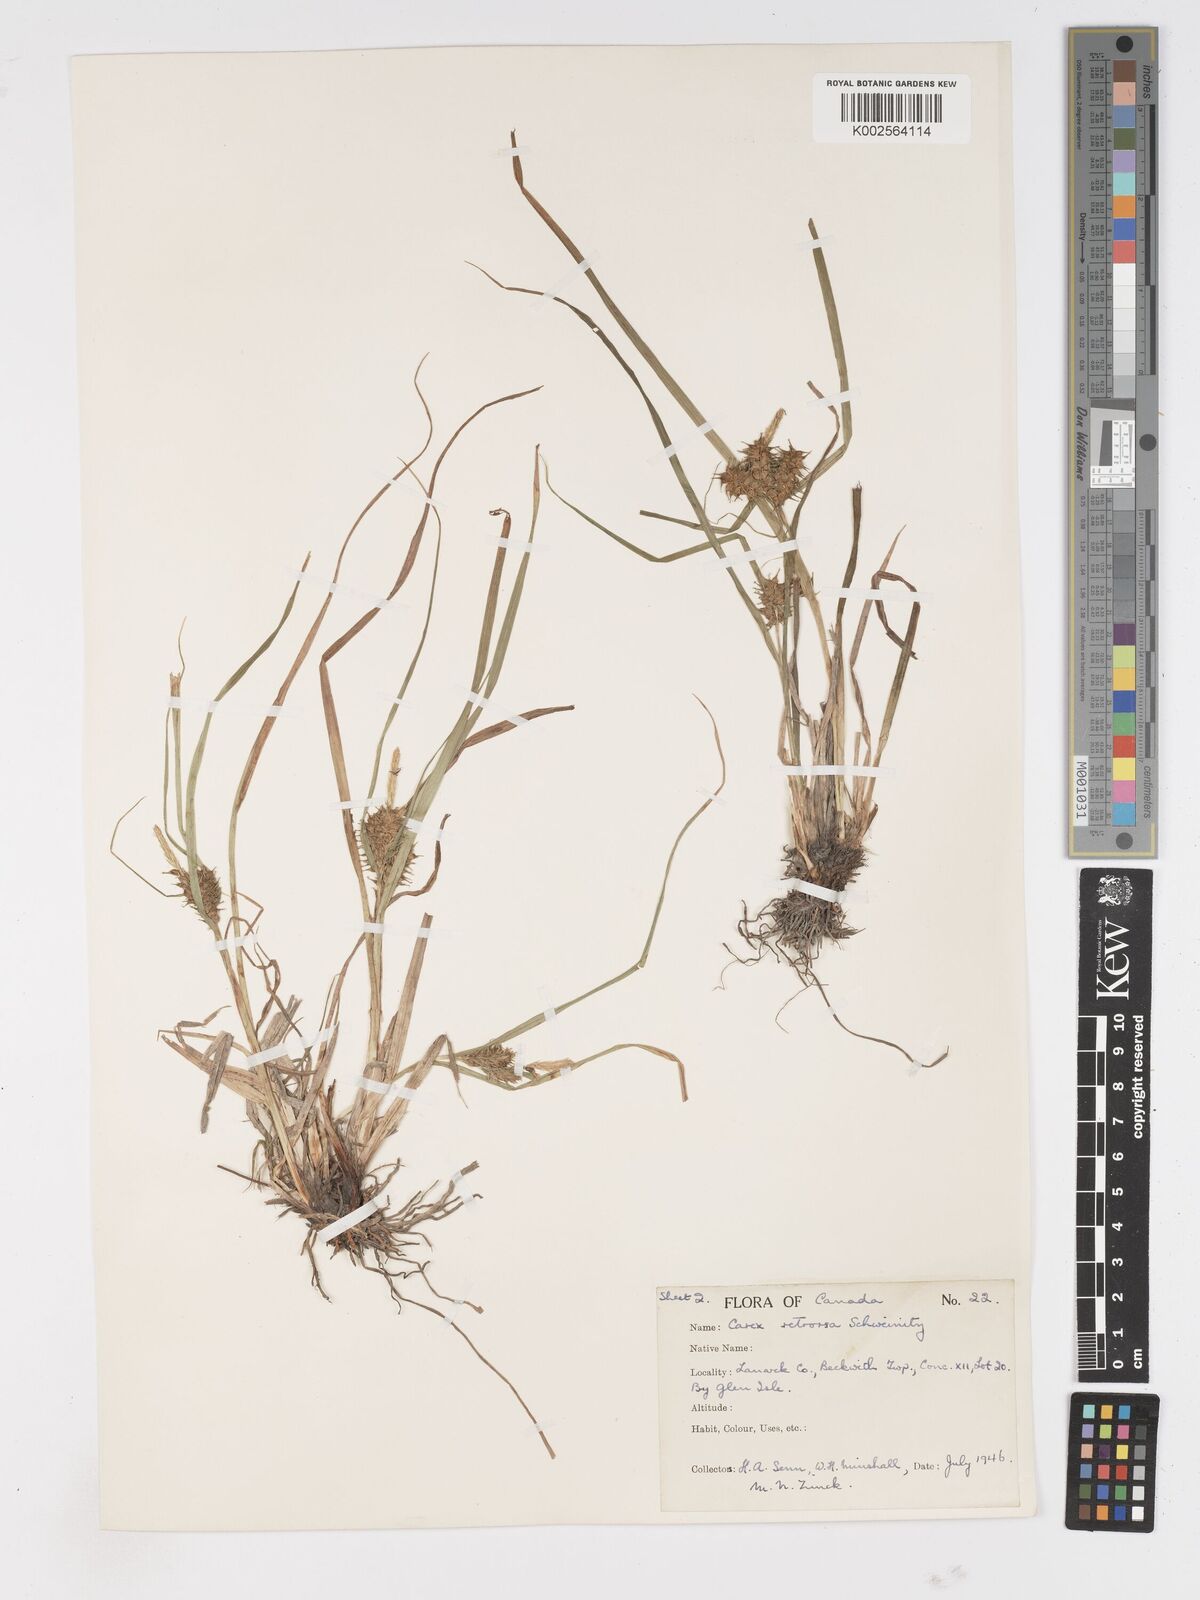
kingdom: Plantae
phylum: Tracheophyta
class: Liliopsida
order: Poales
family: Cyperaceae
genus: Carex
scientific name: Carex retrorsa
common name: Knot-sheath sedge
